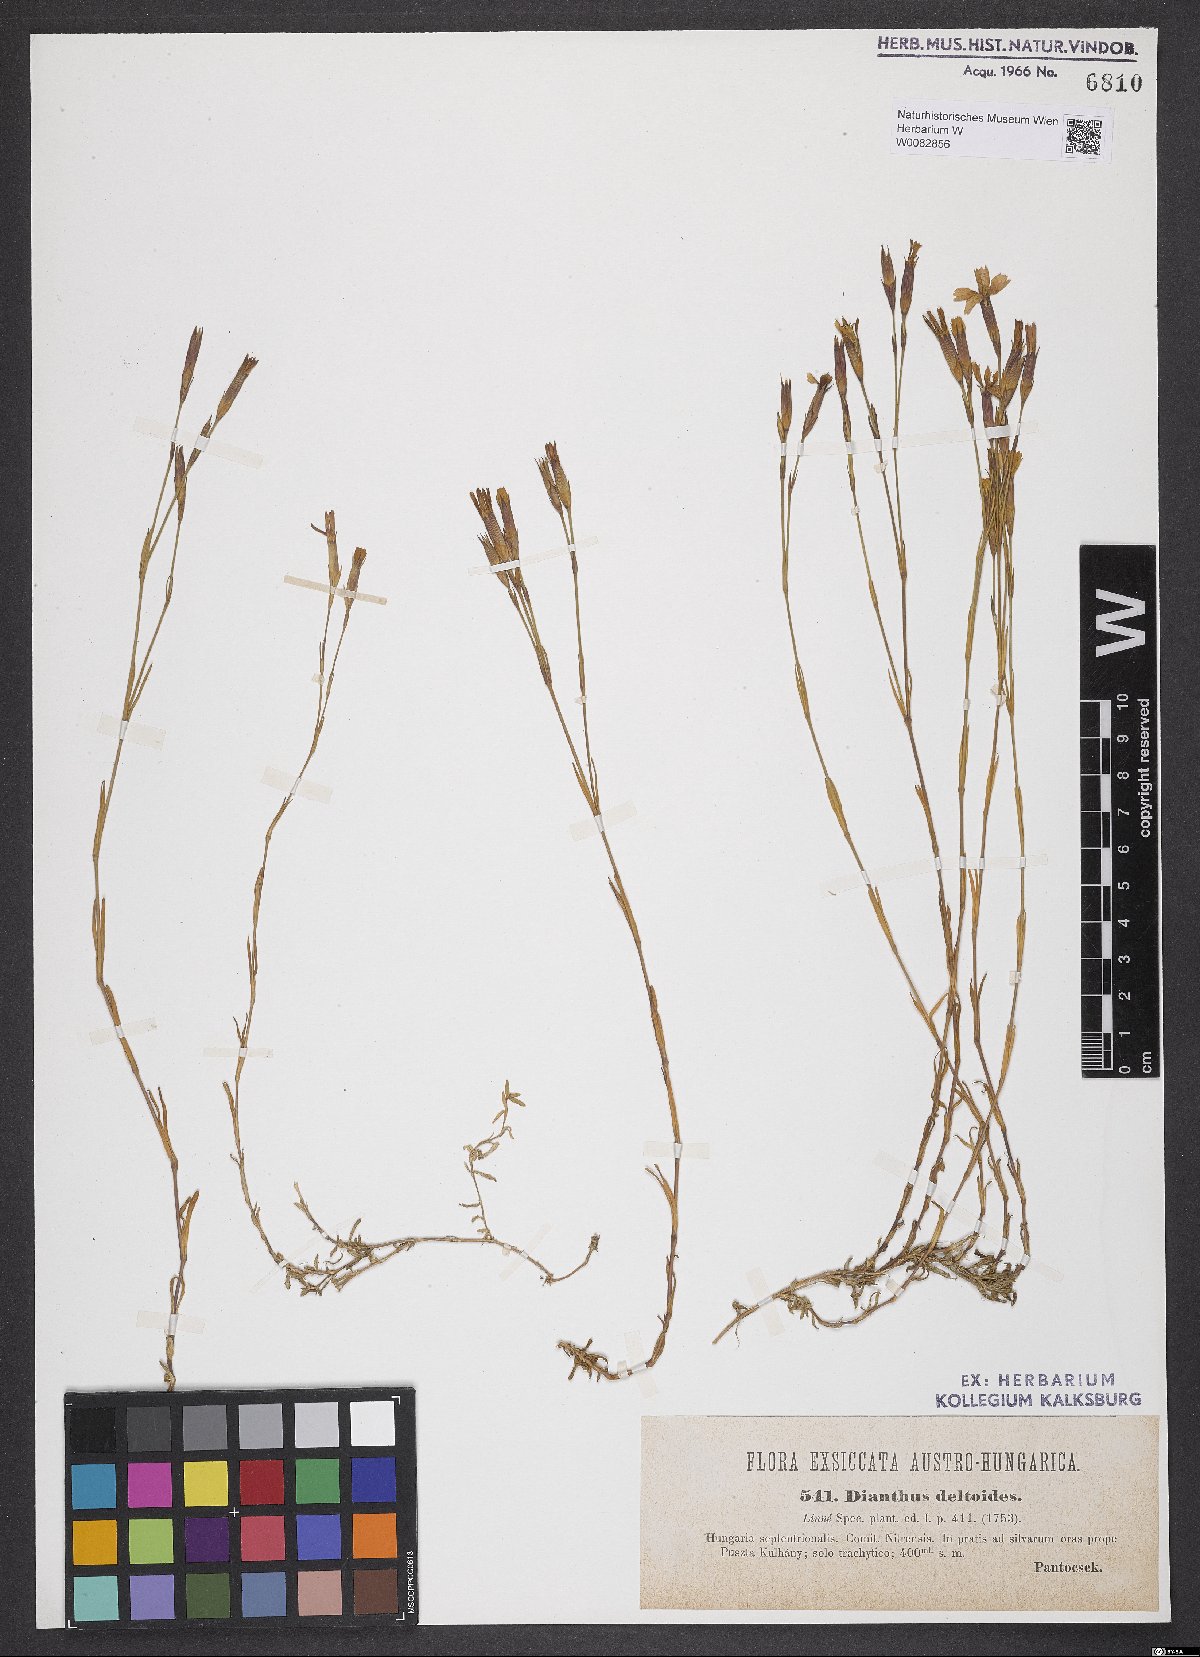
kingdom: Plantae
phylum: Tracheophyta
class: Magnoliopsida
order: Caryophyllales
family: Caryophyllaceae
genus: Dianthus
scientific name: Dianthus deltoides
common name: Maiden pink
